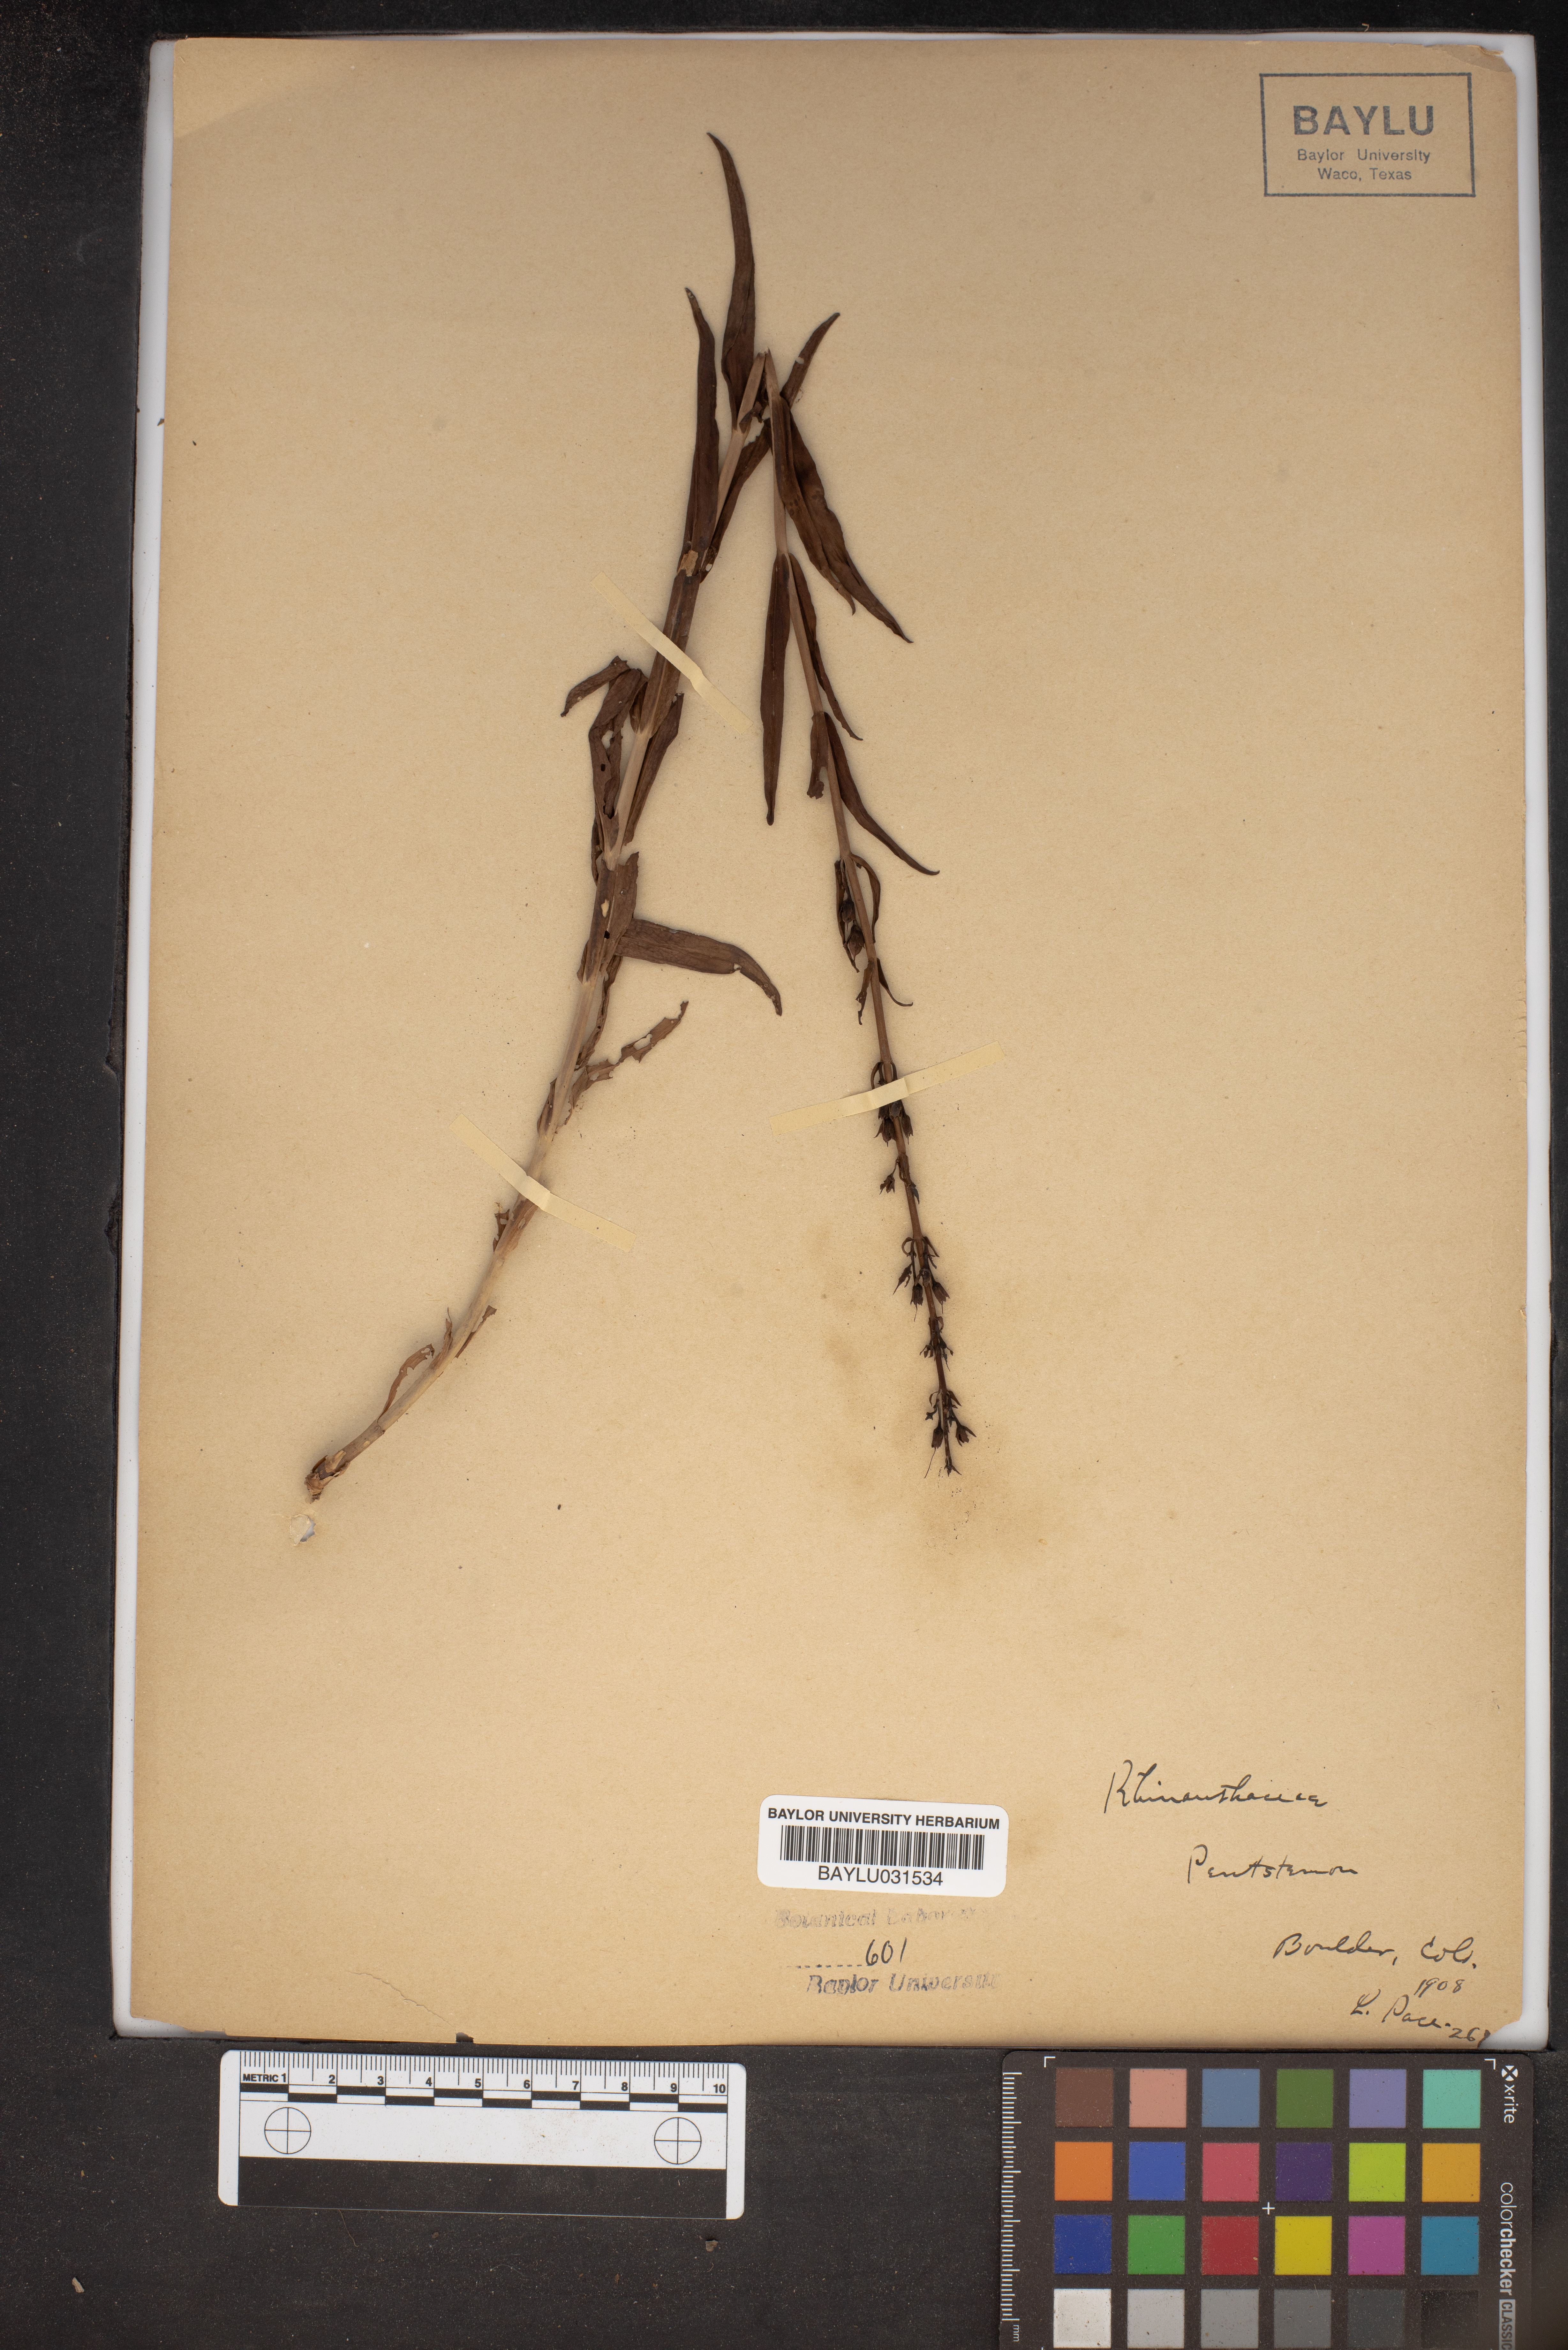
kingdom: Plantae
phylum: Tracheophyta
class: Magnoliopsida
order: Lamiales
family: Plantaginaceae
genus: Penstemon
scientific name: Penstemon
